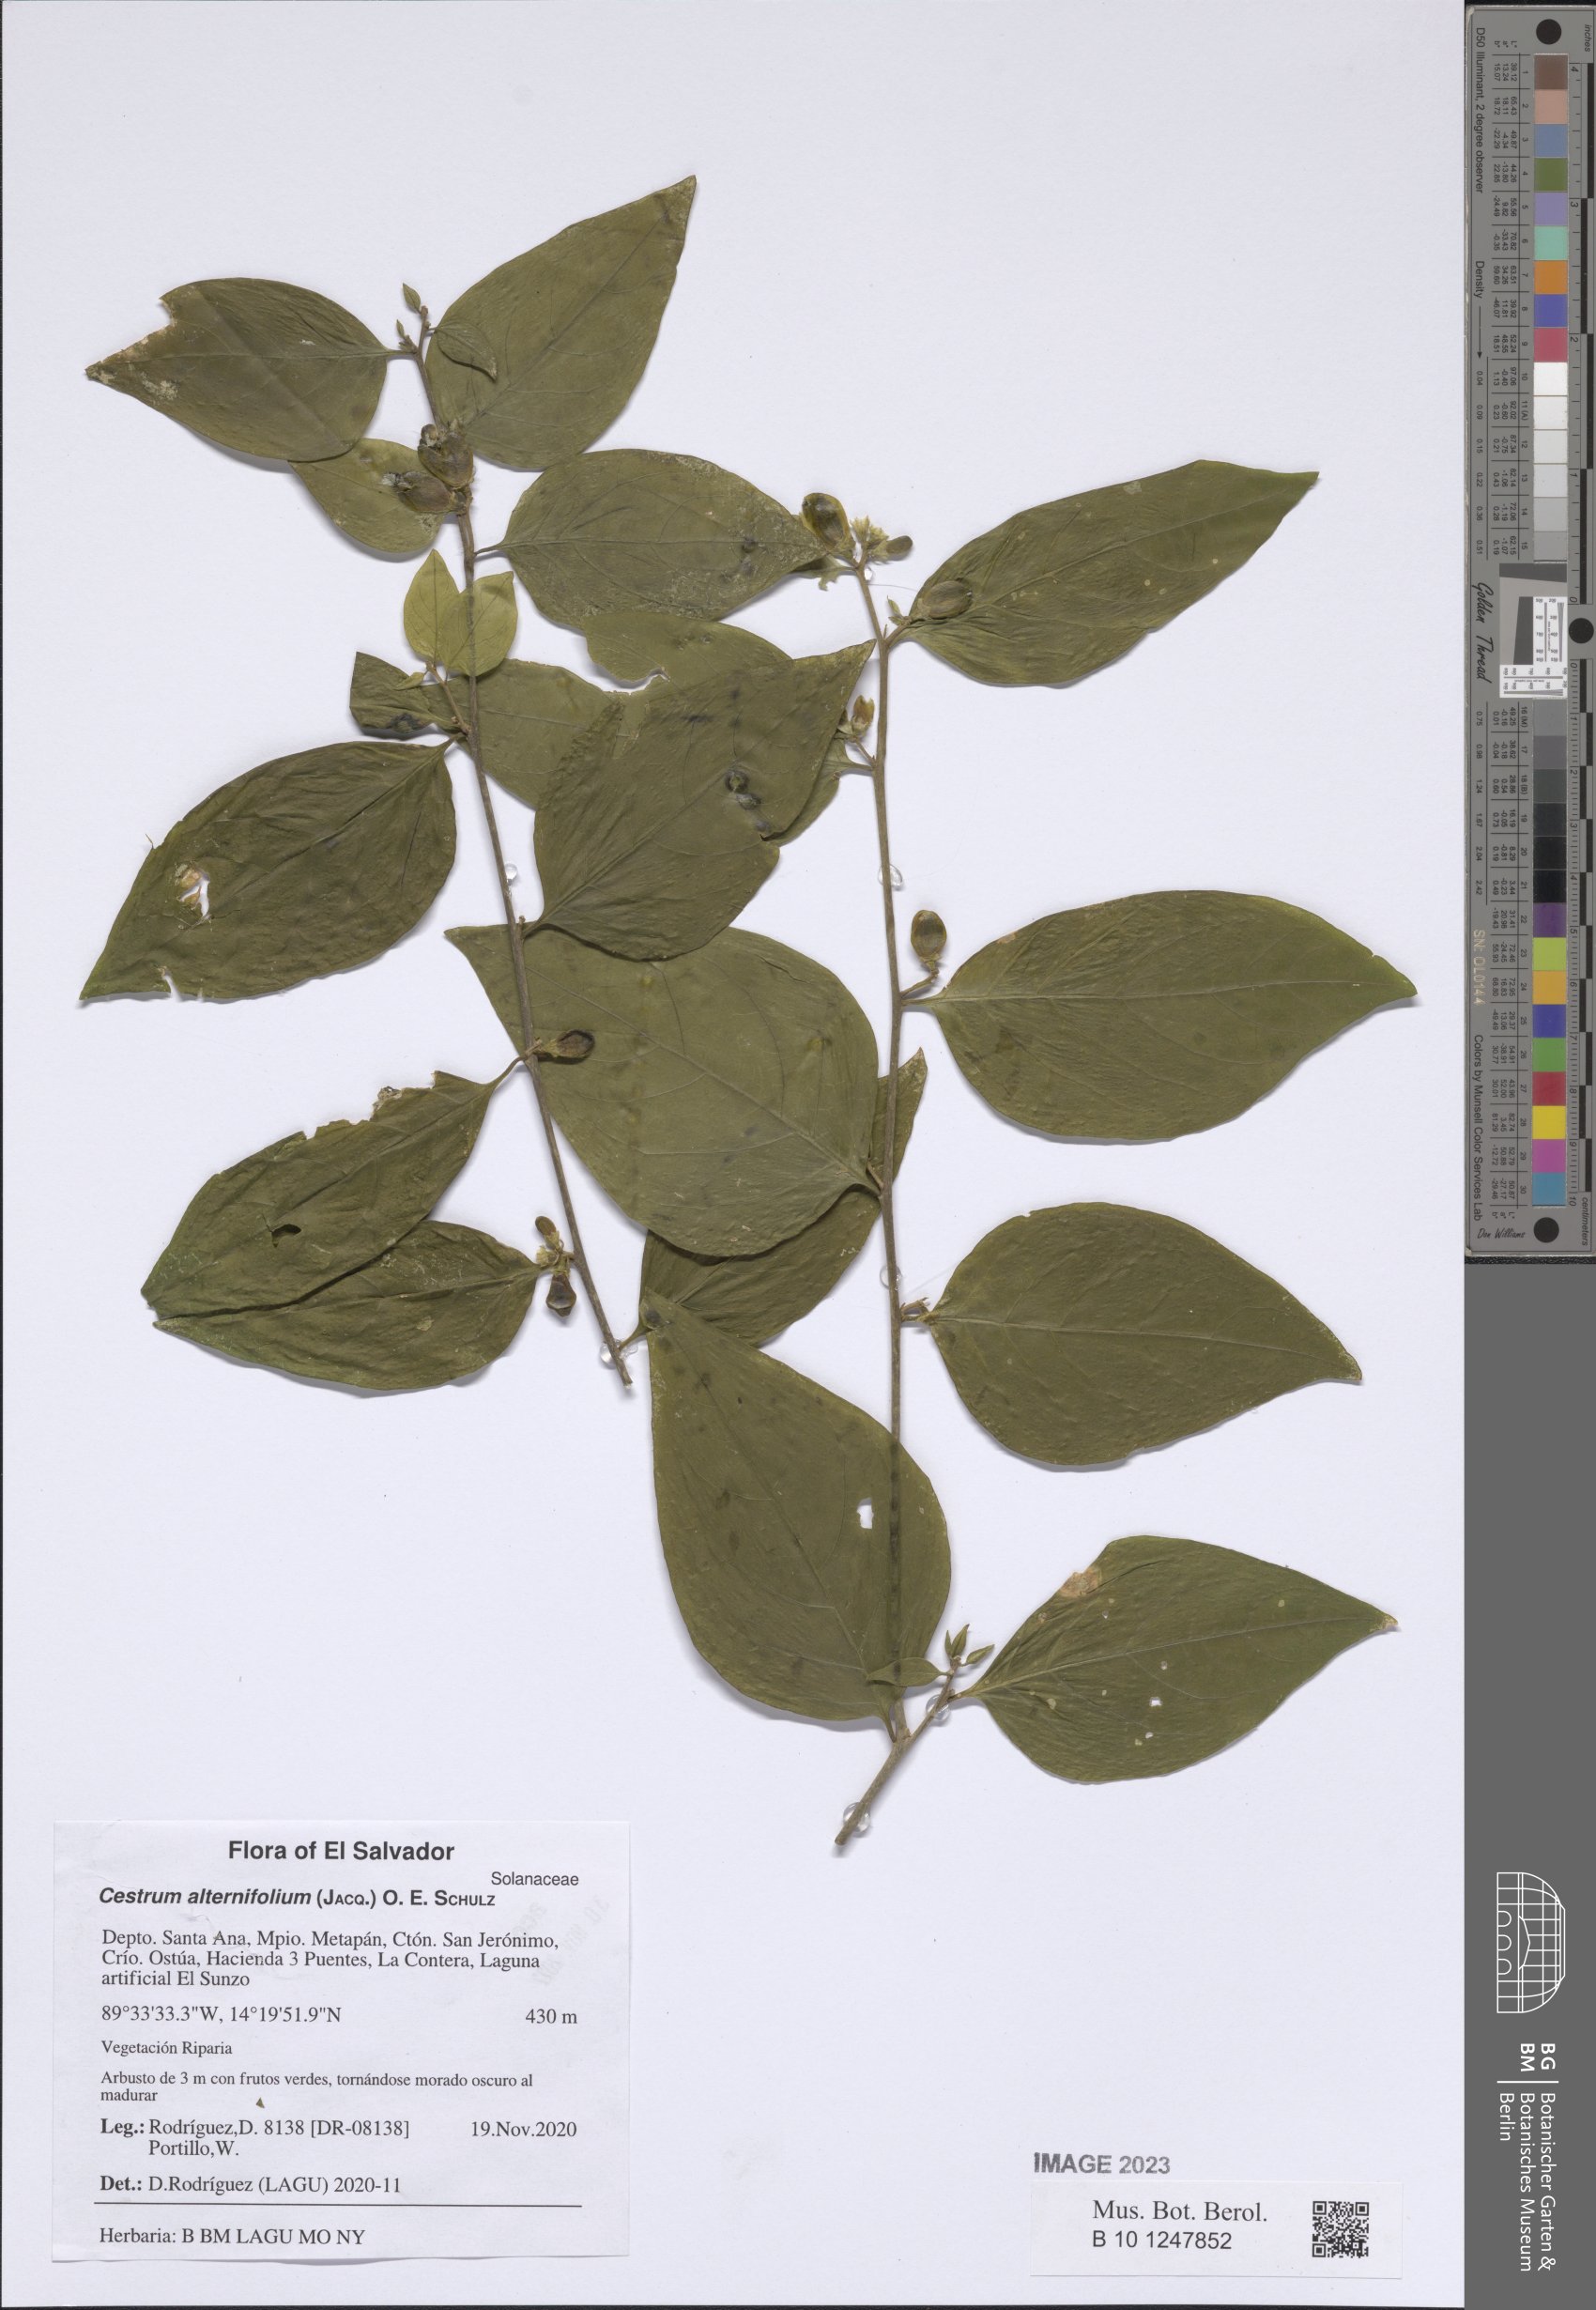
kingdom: Plantae
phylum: Tracheophyta
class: Magnoliopsida
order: Solanales
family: Solanaceae
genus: Cestrum
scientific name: Cestrum alternifolium
